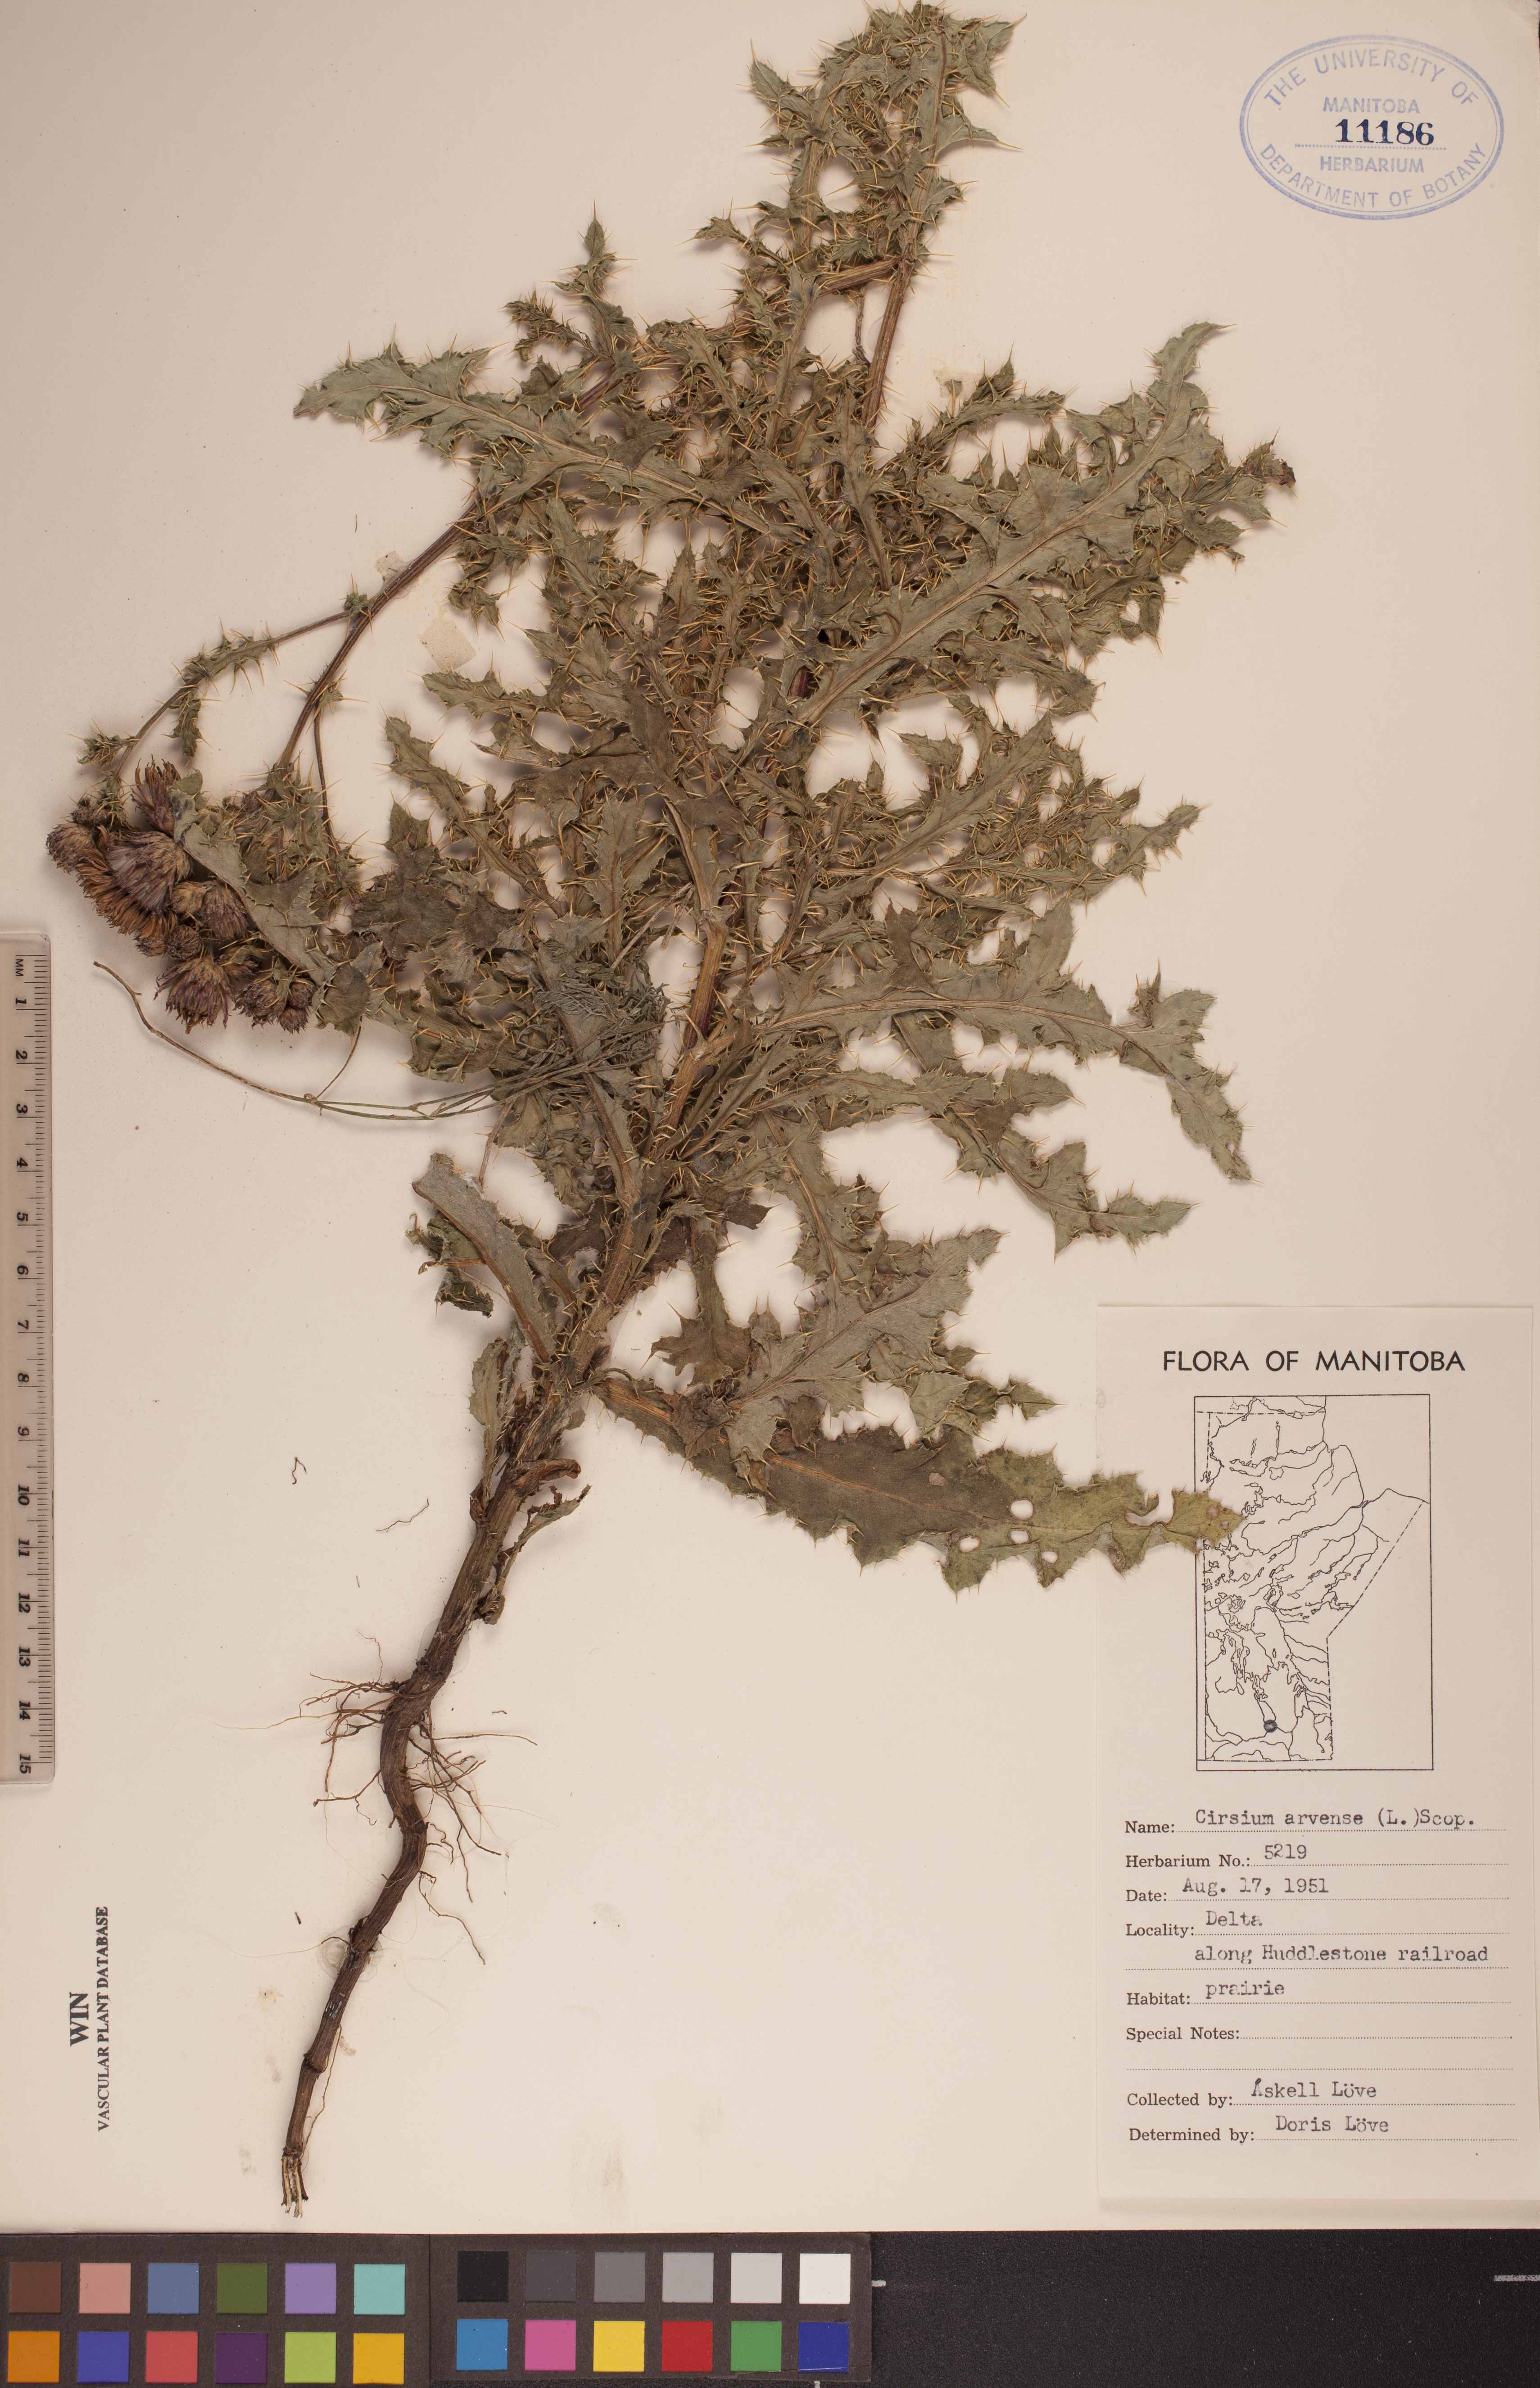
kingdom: Plantae
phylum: Tracheophyta
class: Magnoliopsida
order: Asterales
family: Asteraceae
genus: Cirsium
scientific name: Cirsium arvense
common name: Creeping thistle
